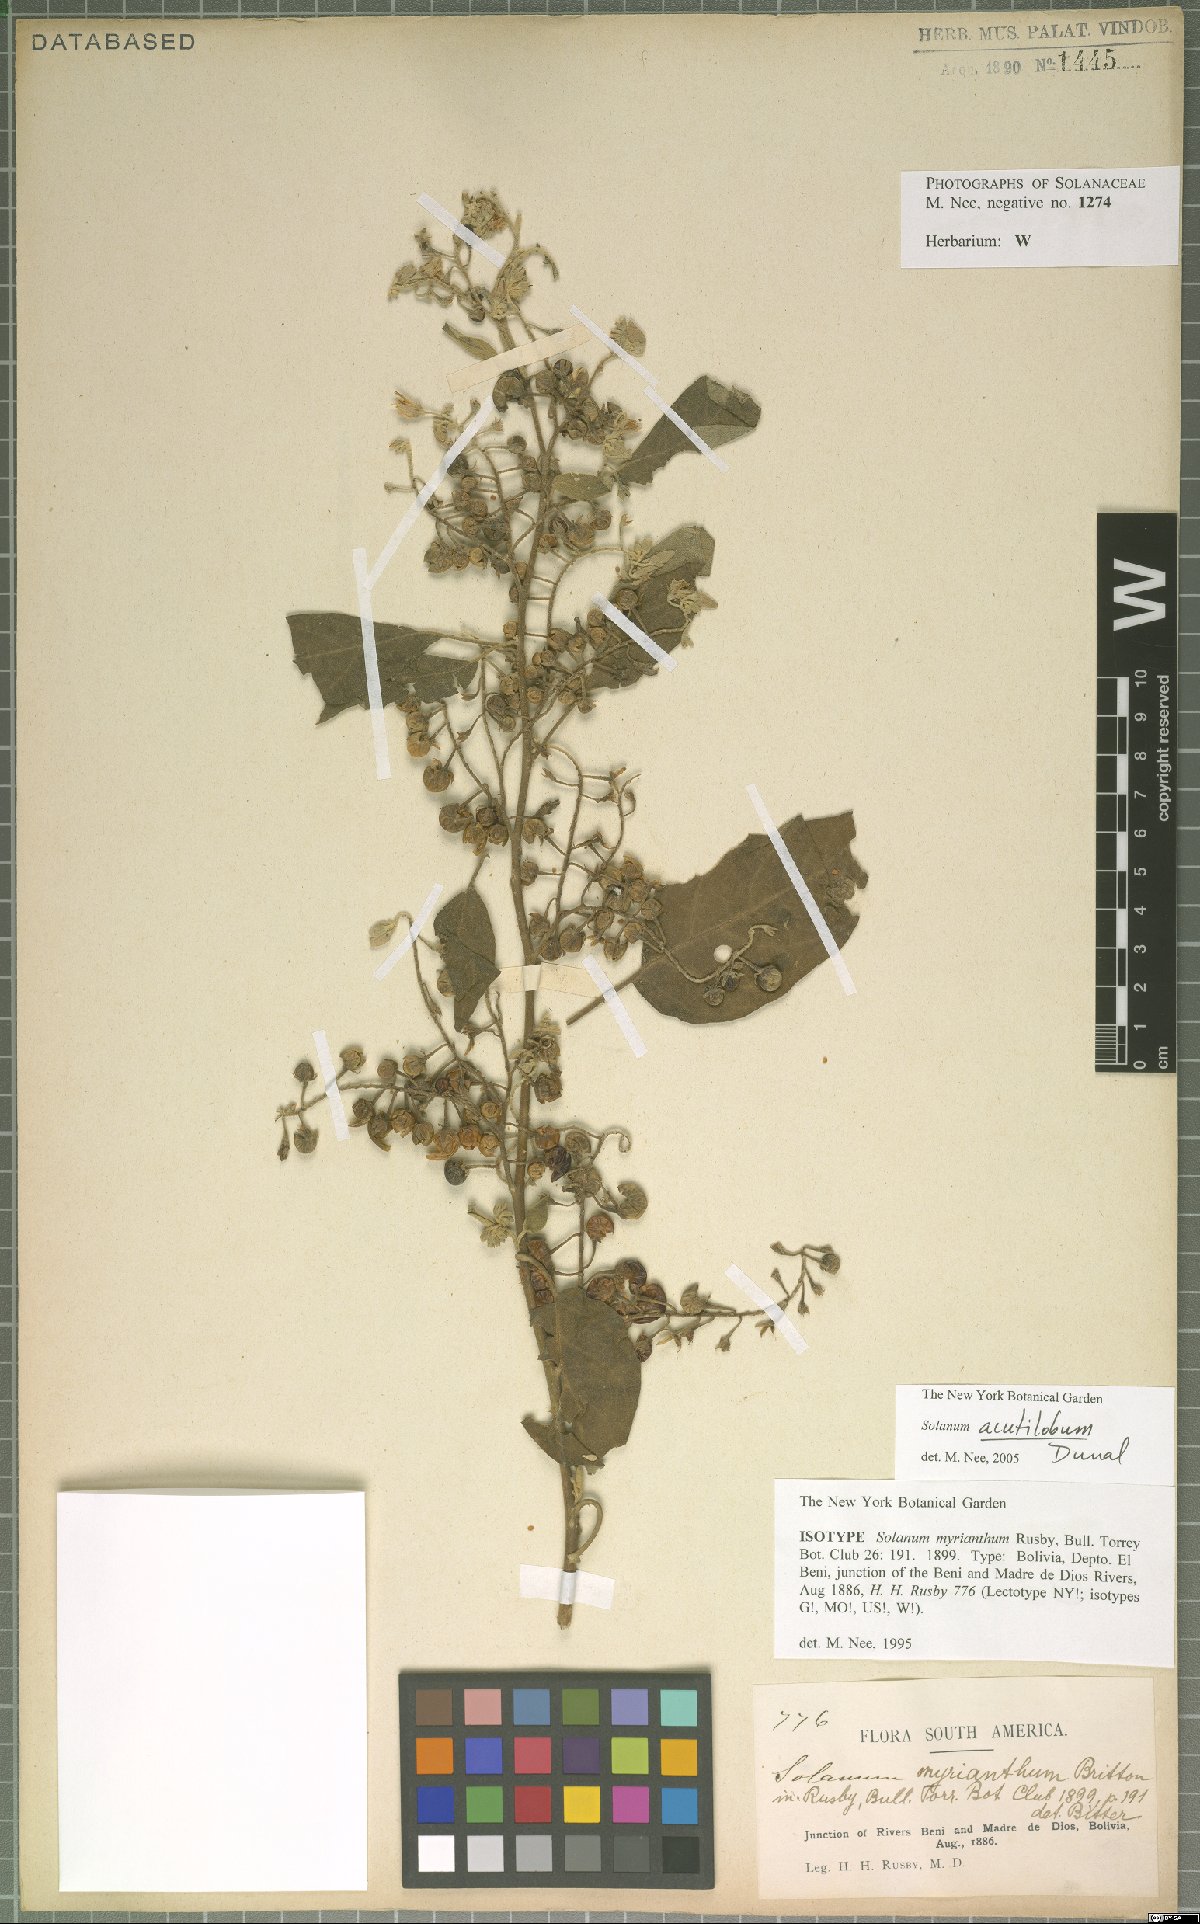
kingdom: Plantae
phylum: Tracheophyta
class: Magnoliopsida
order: Solanales
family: Solanaceae
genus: Solanum
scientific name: Solanum acutilobum
